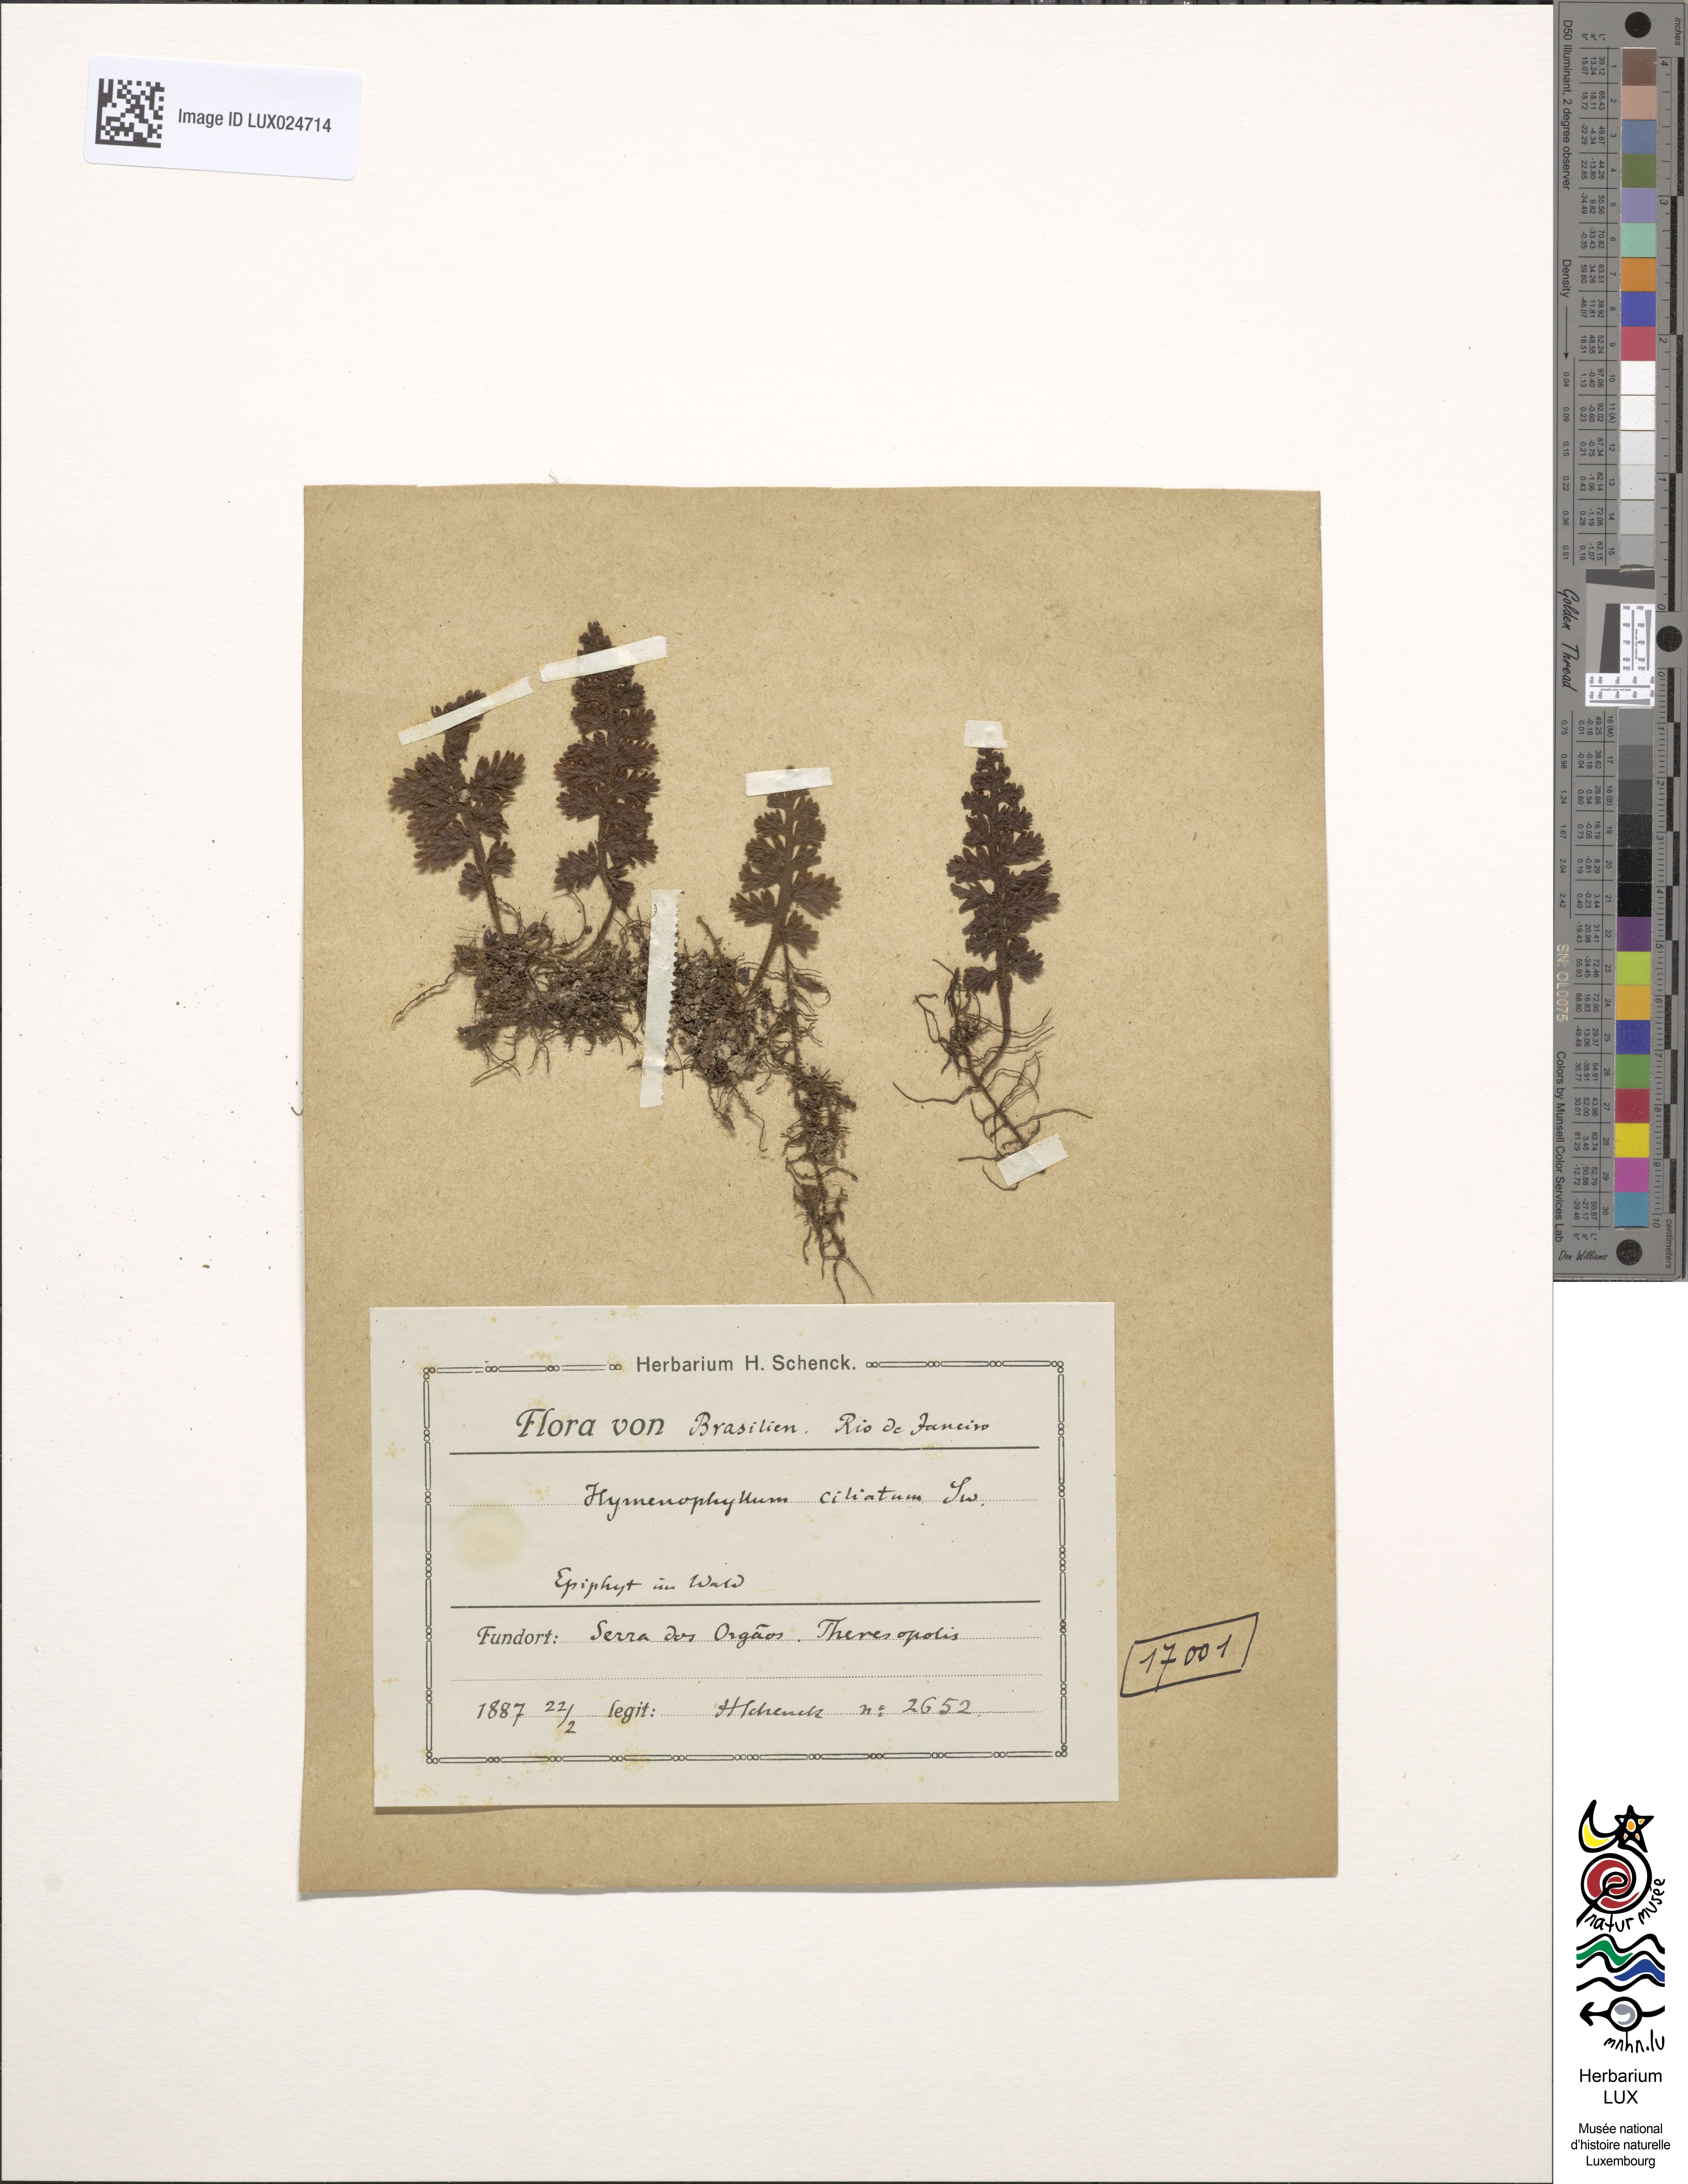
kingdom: Plantae
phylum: Tracheophyta
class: Polypodiopsida
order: Hymenophyllales
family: Hymenophyllaceae
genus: Hymenophyllum
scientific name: Hymenophyllum hirsutum
